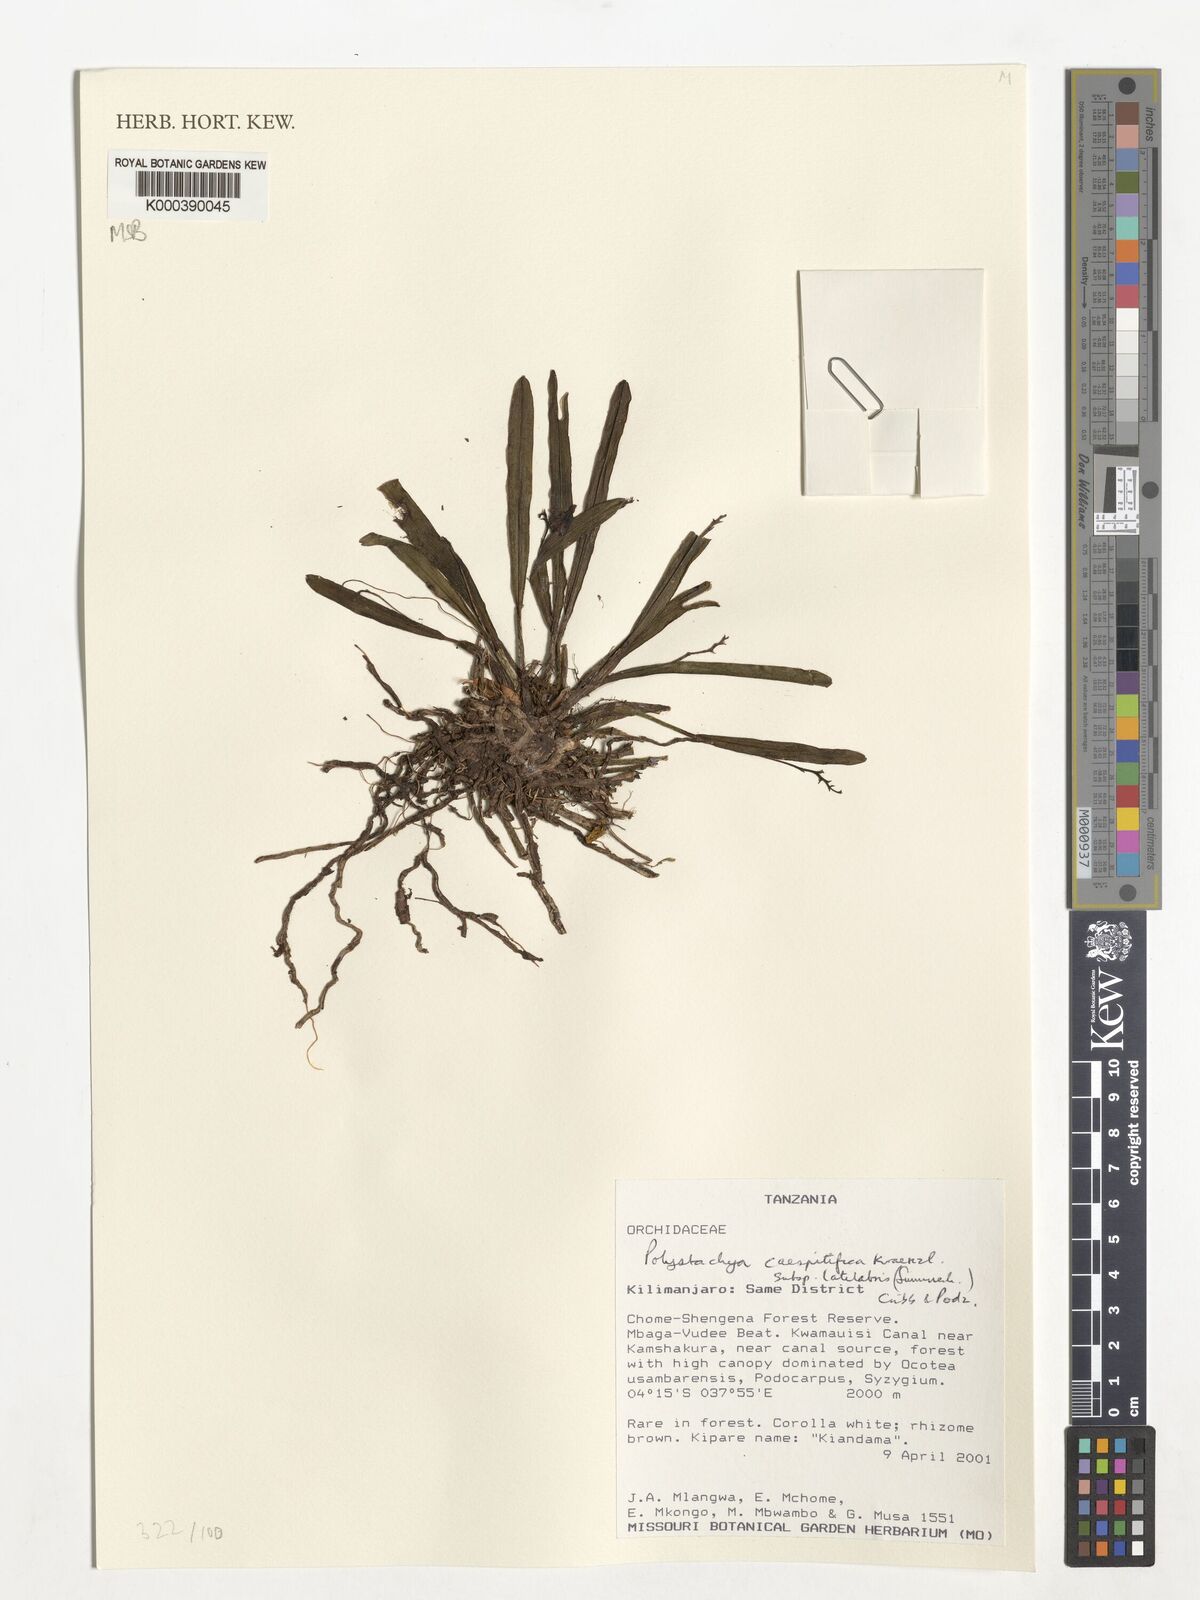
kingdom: Plantae
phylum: Tracheophyta
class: Liliopsida
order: Asparagales
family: Orchidaceae
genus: Polystachya
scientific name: Polystachya caespitifica
